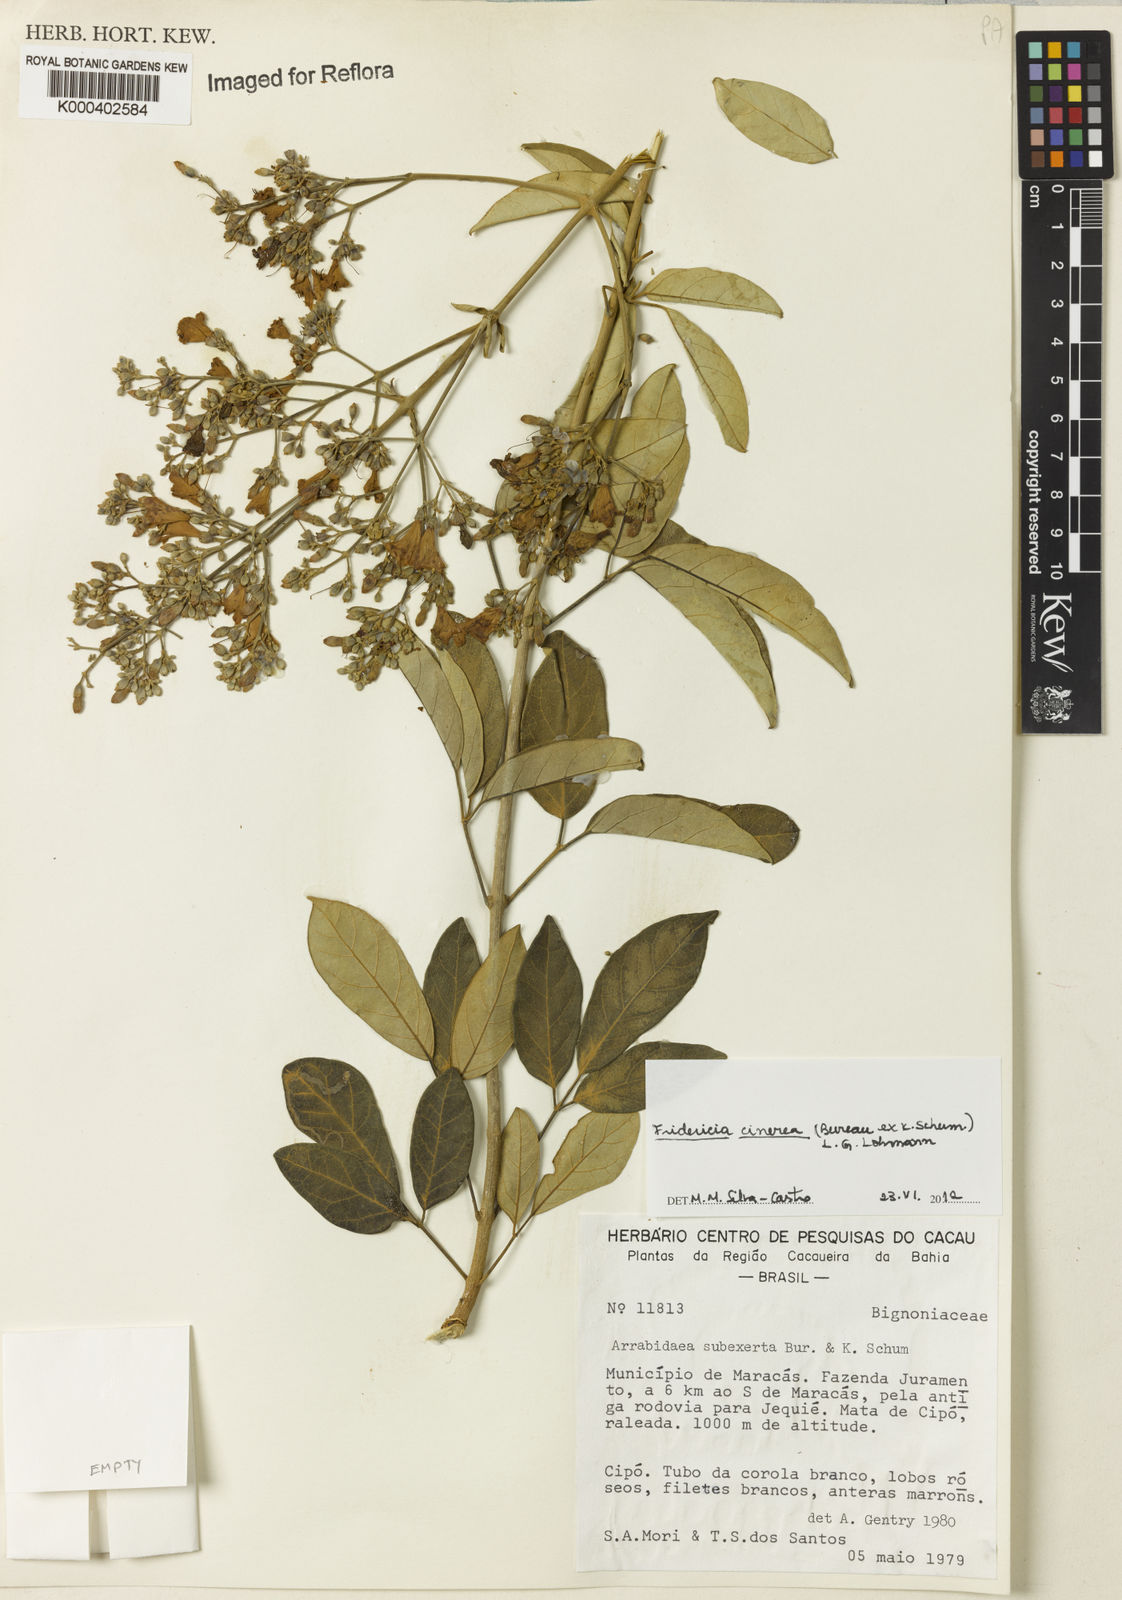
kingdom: Plantae
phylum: Tracheophyta
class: Magnoliopsida
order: Lamiales
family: Bignoniaceae
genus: Fridericia
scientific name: Fridericia cinerea
